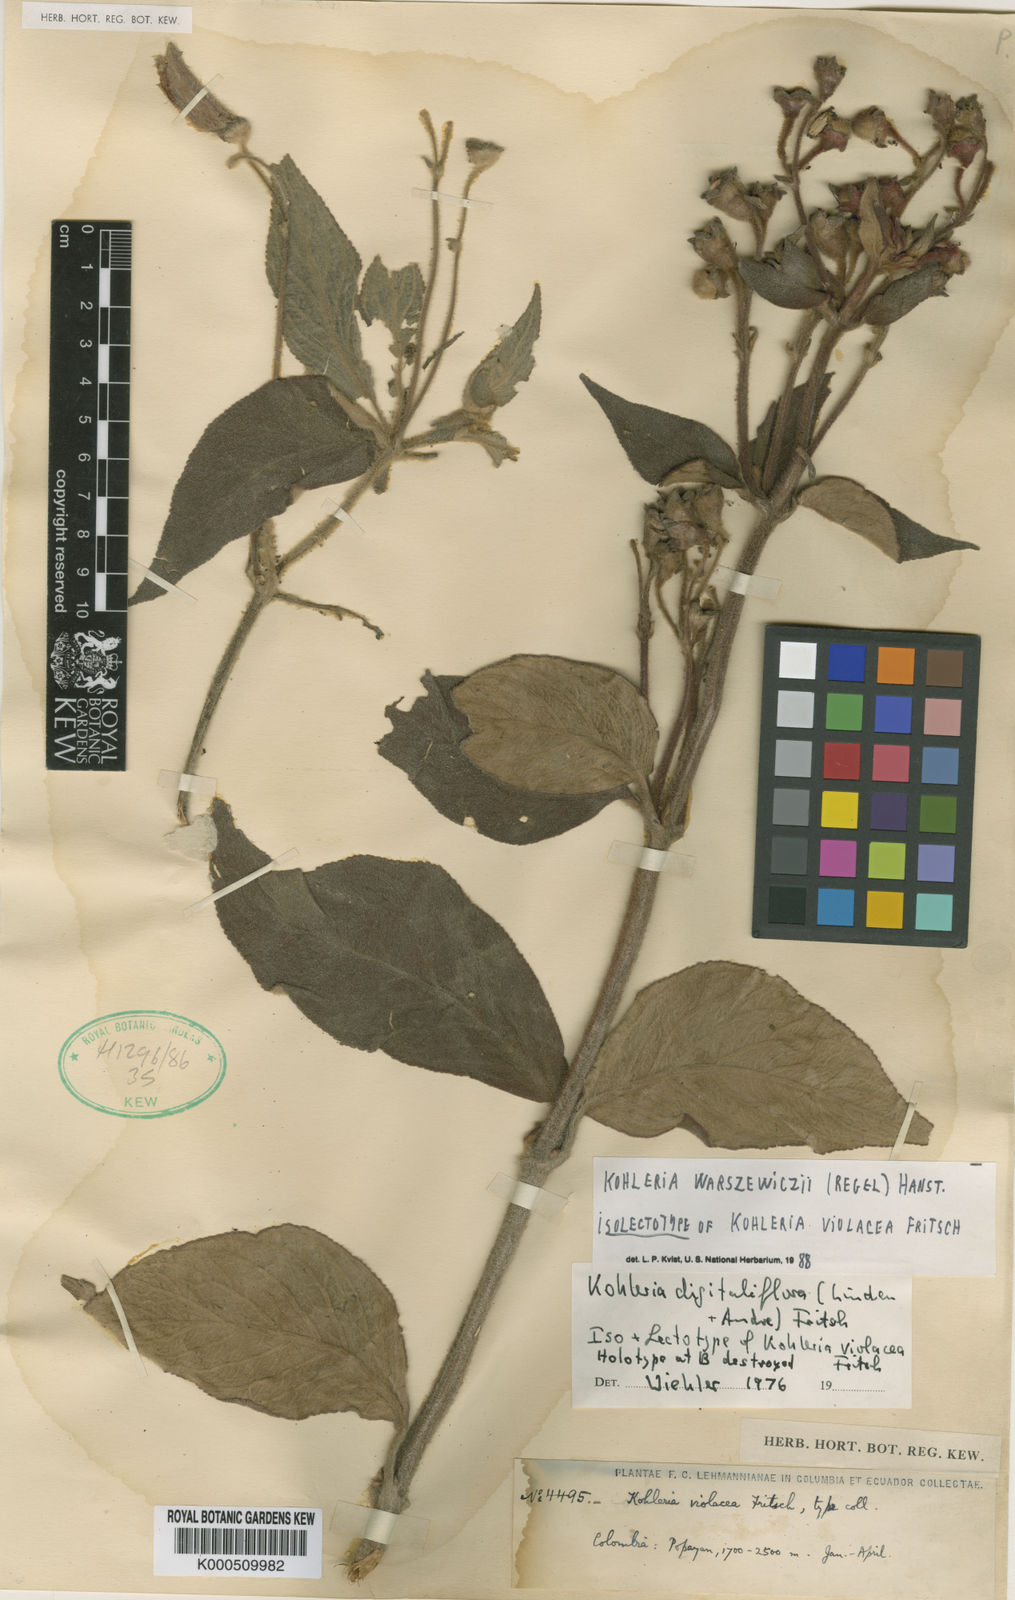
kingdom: Plantae
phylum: Tracheophyta
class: Magnoliopsida
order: Lamiales
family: Gesneriaceae
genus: Kohleria
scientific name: Kohleria warszewiczii
